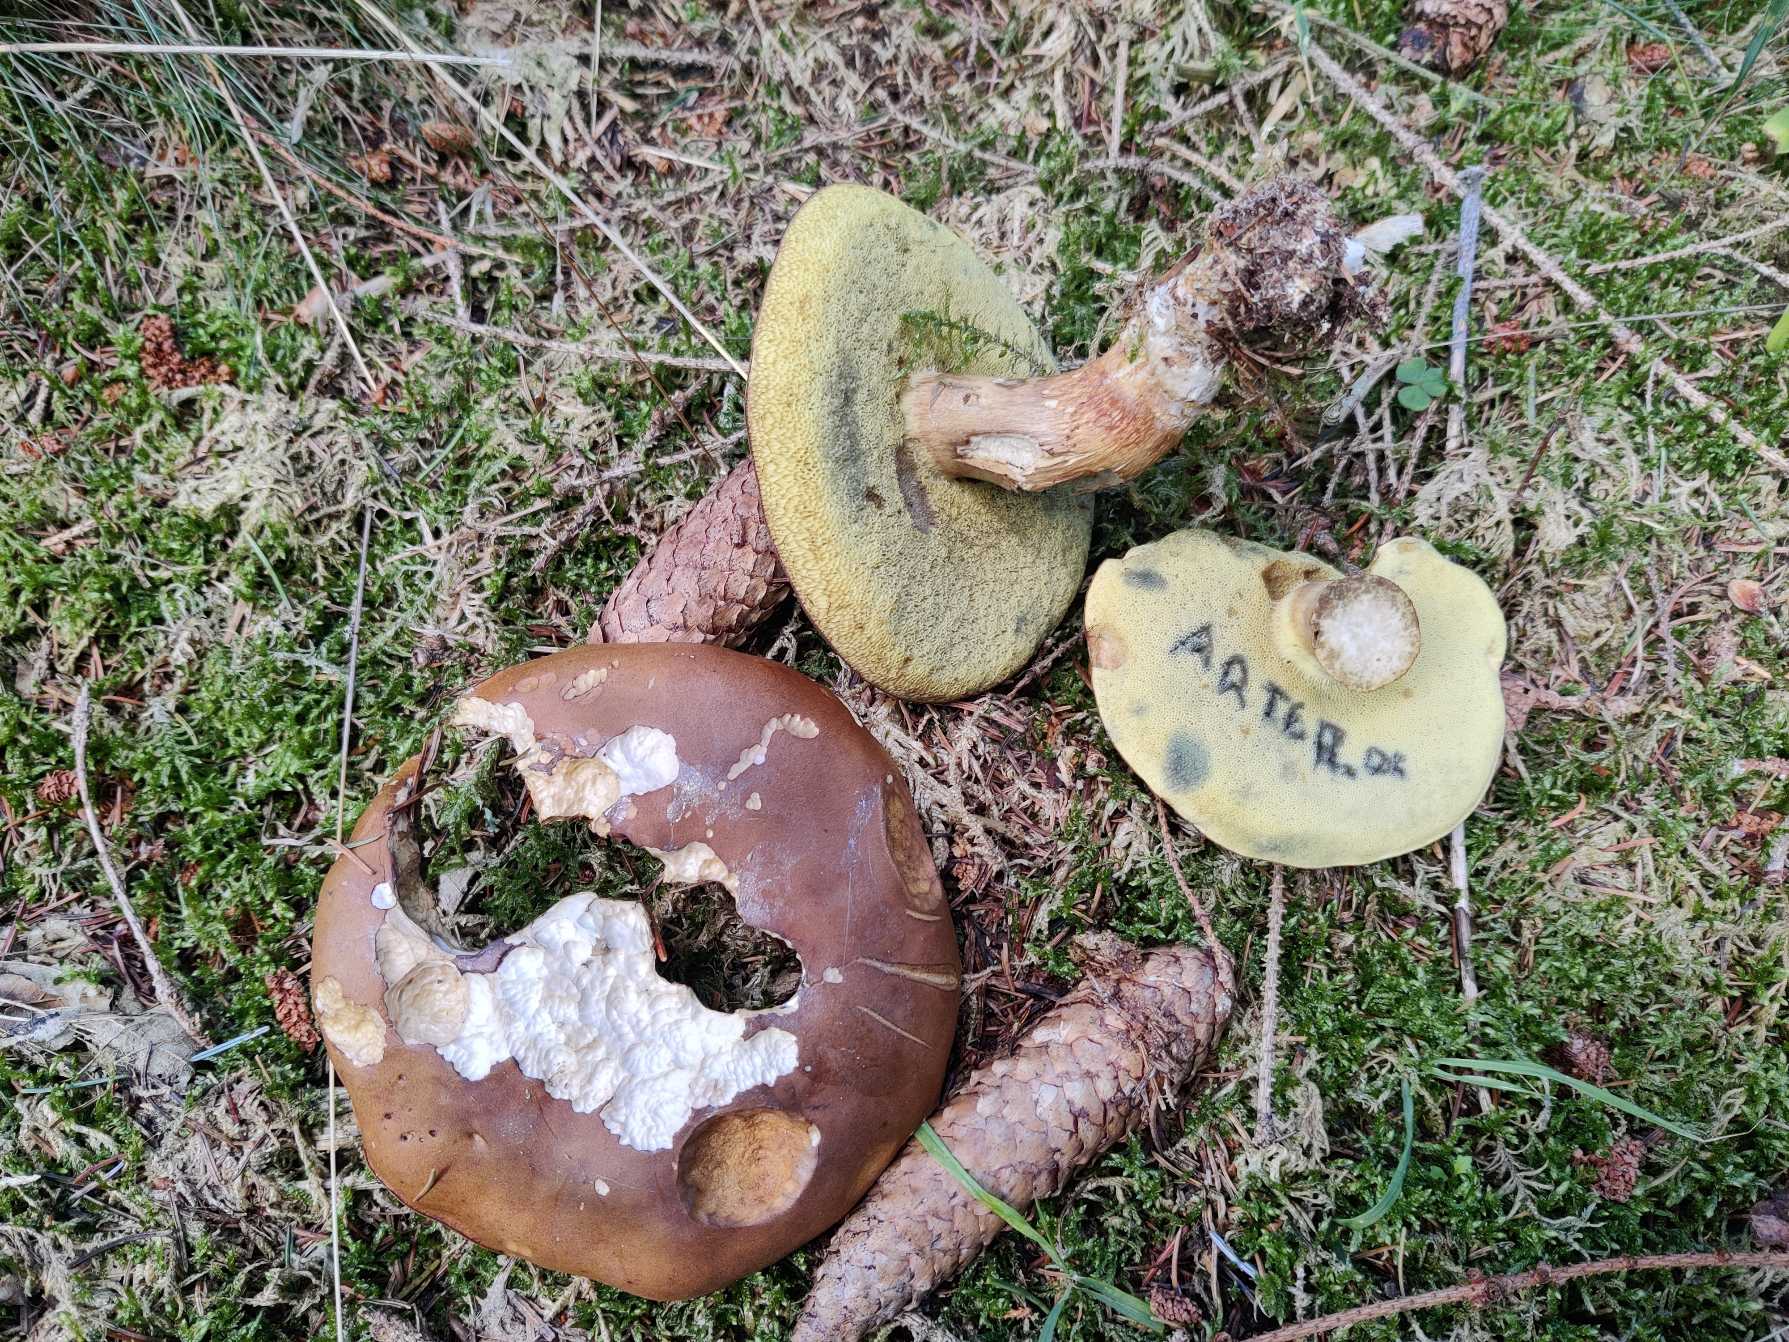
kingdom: Fungi
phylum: Basidiomycota
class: Agaricomycetes
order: Boletales
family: Boletaceae
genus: Imleria
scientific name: Imleria badia
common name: Brunstokket rørhat
